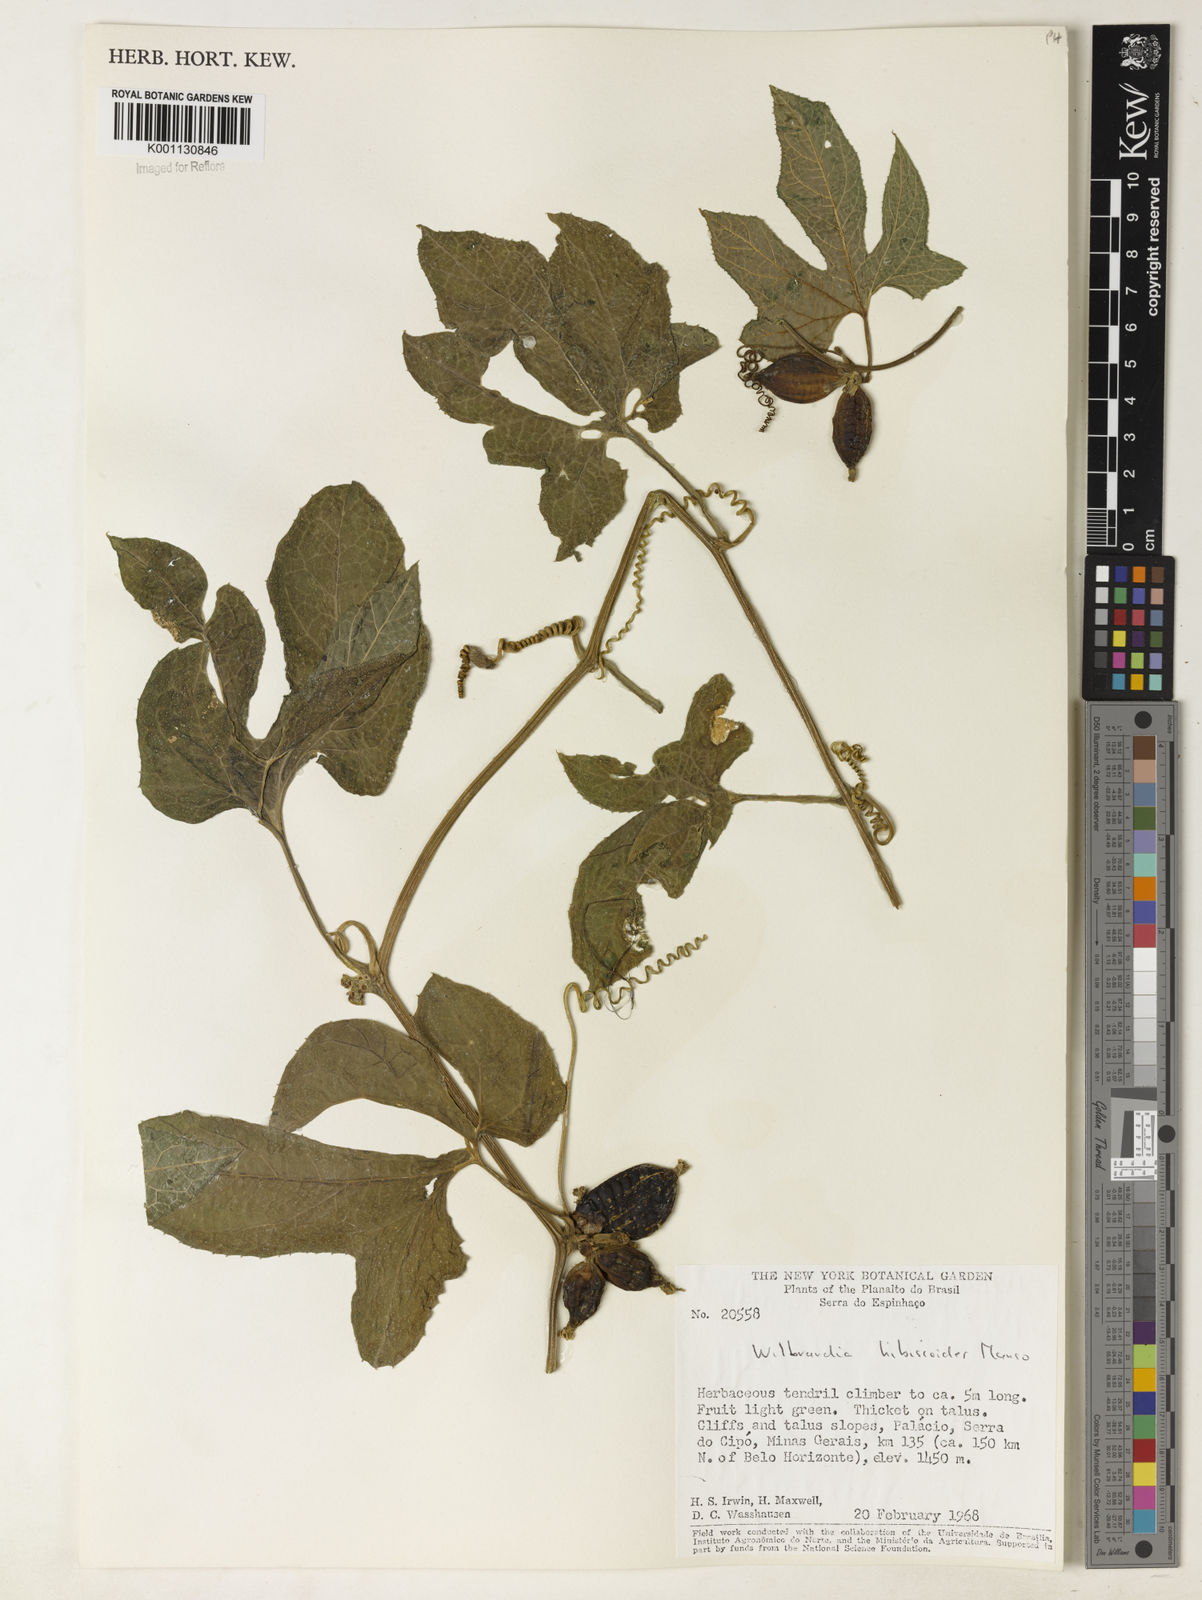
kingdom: Plantae
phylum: Tracheophyta
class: Magnoliopsida
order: Cucurbitales
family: Cucurbitaceae
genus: Wilbrandia
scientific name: Wilbrandia hibiscoides
